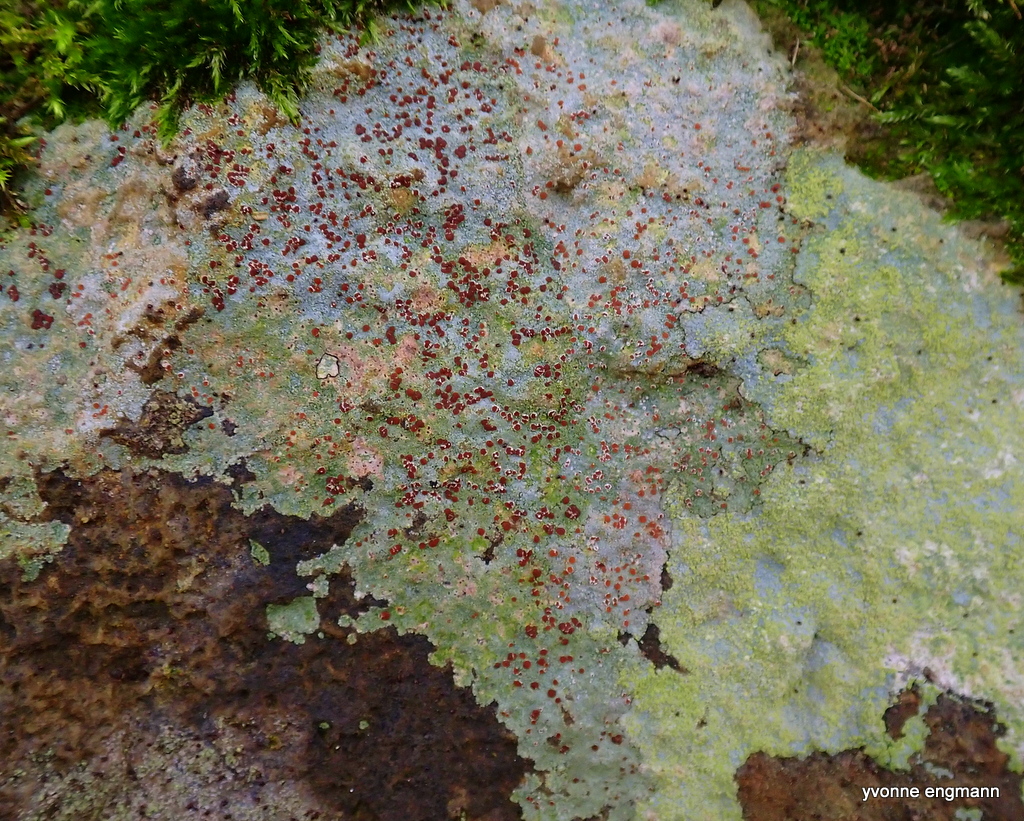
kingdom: Fungi
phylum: Ascomycota
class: Lecanoromycetes
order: Baeomycetales
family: Trapeliaceae
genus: Trapelia
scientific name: Trapelia coarctata
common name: hvidrandet brunskivelav
